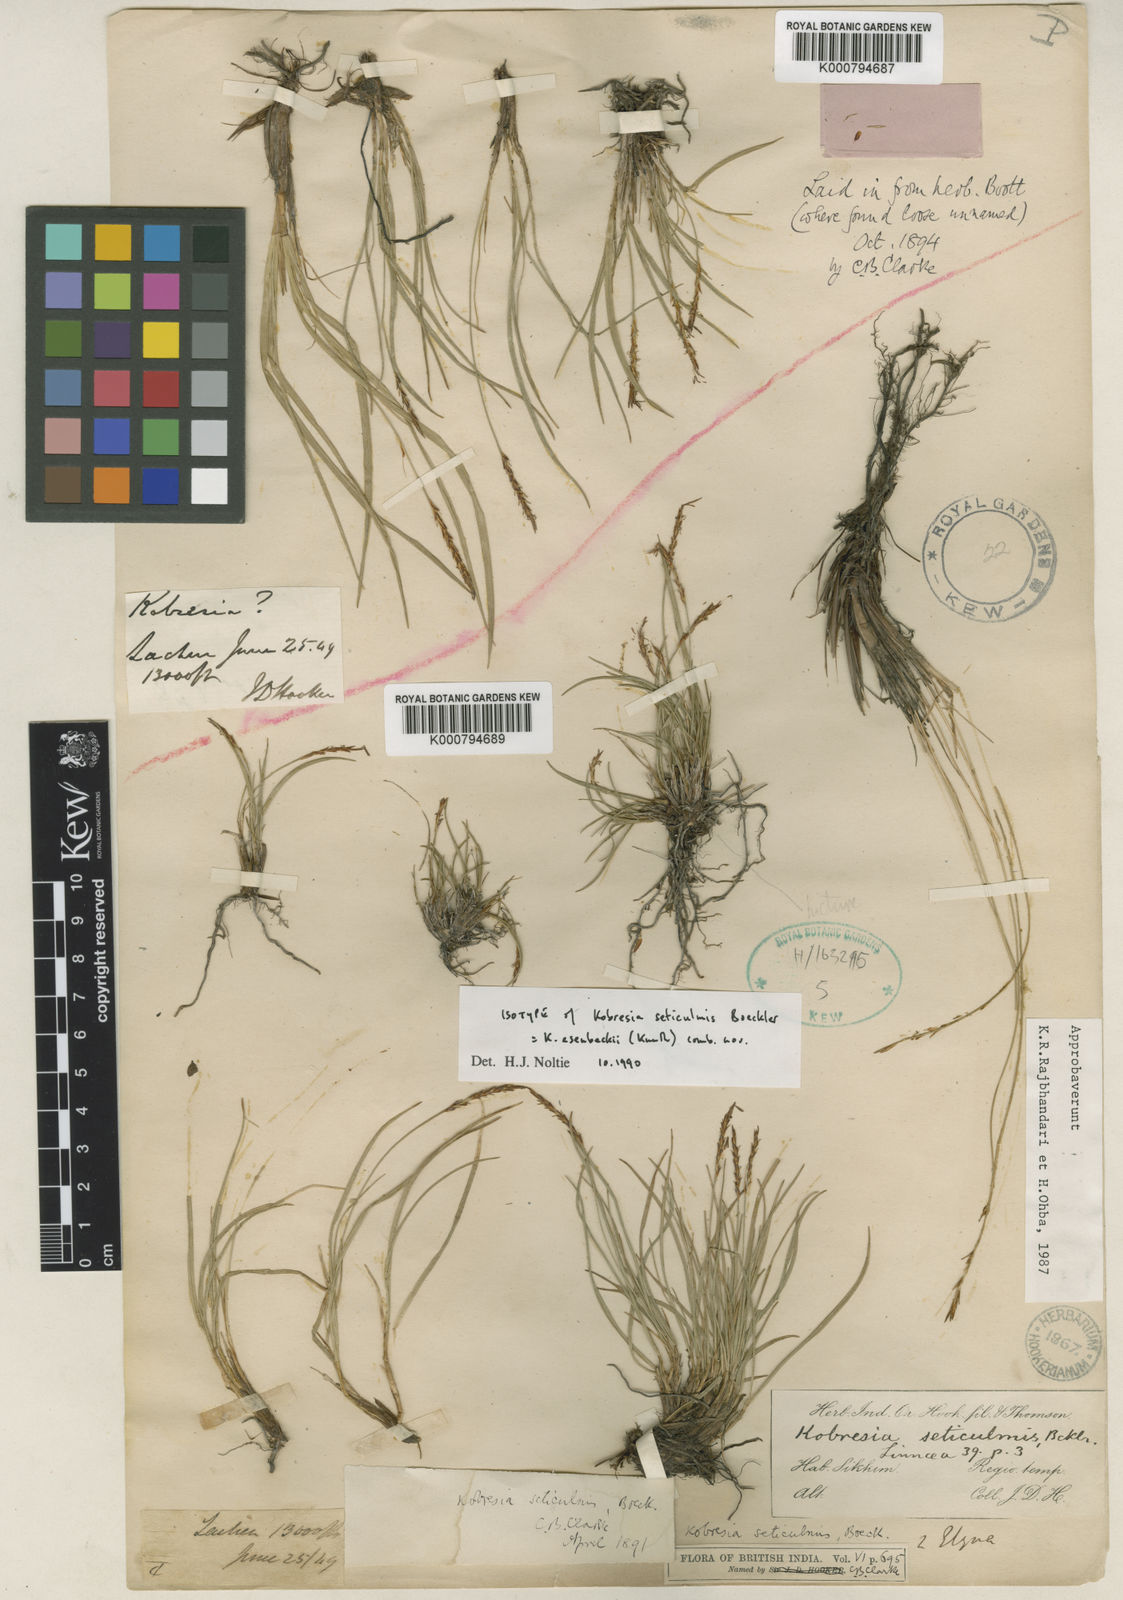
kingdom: Plantae
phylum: Tracheophyta
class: Liliopsida
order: Poales
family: Cyperaceae
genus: Carex
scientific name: Carex esenbeckii
